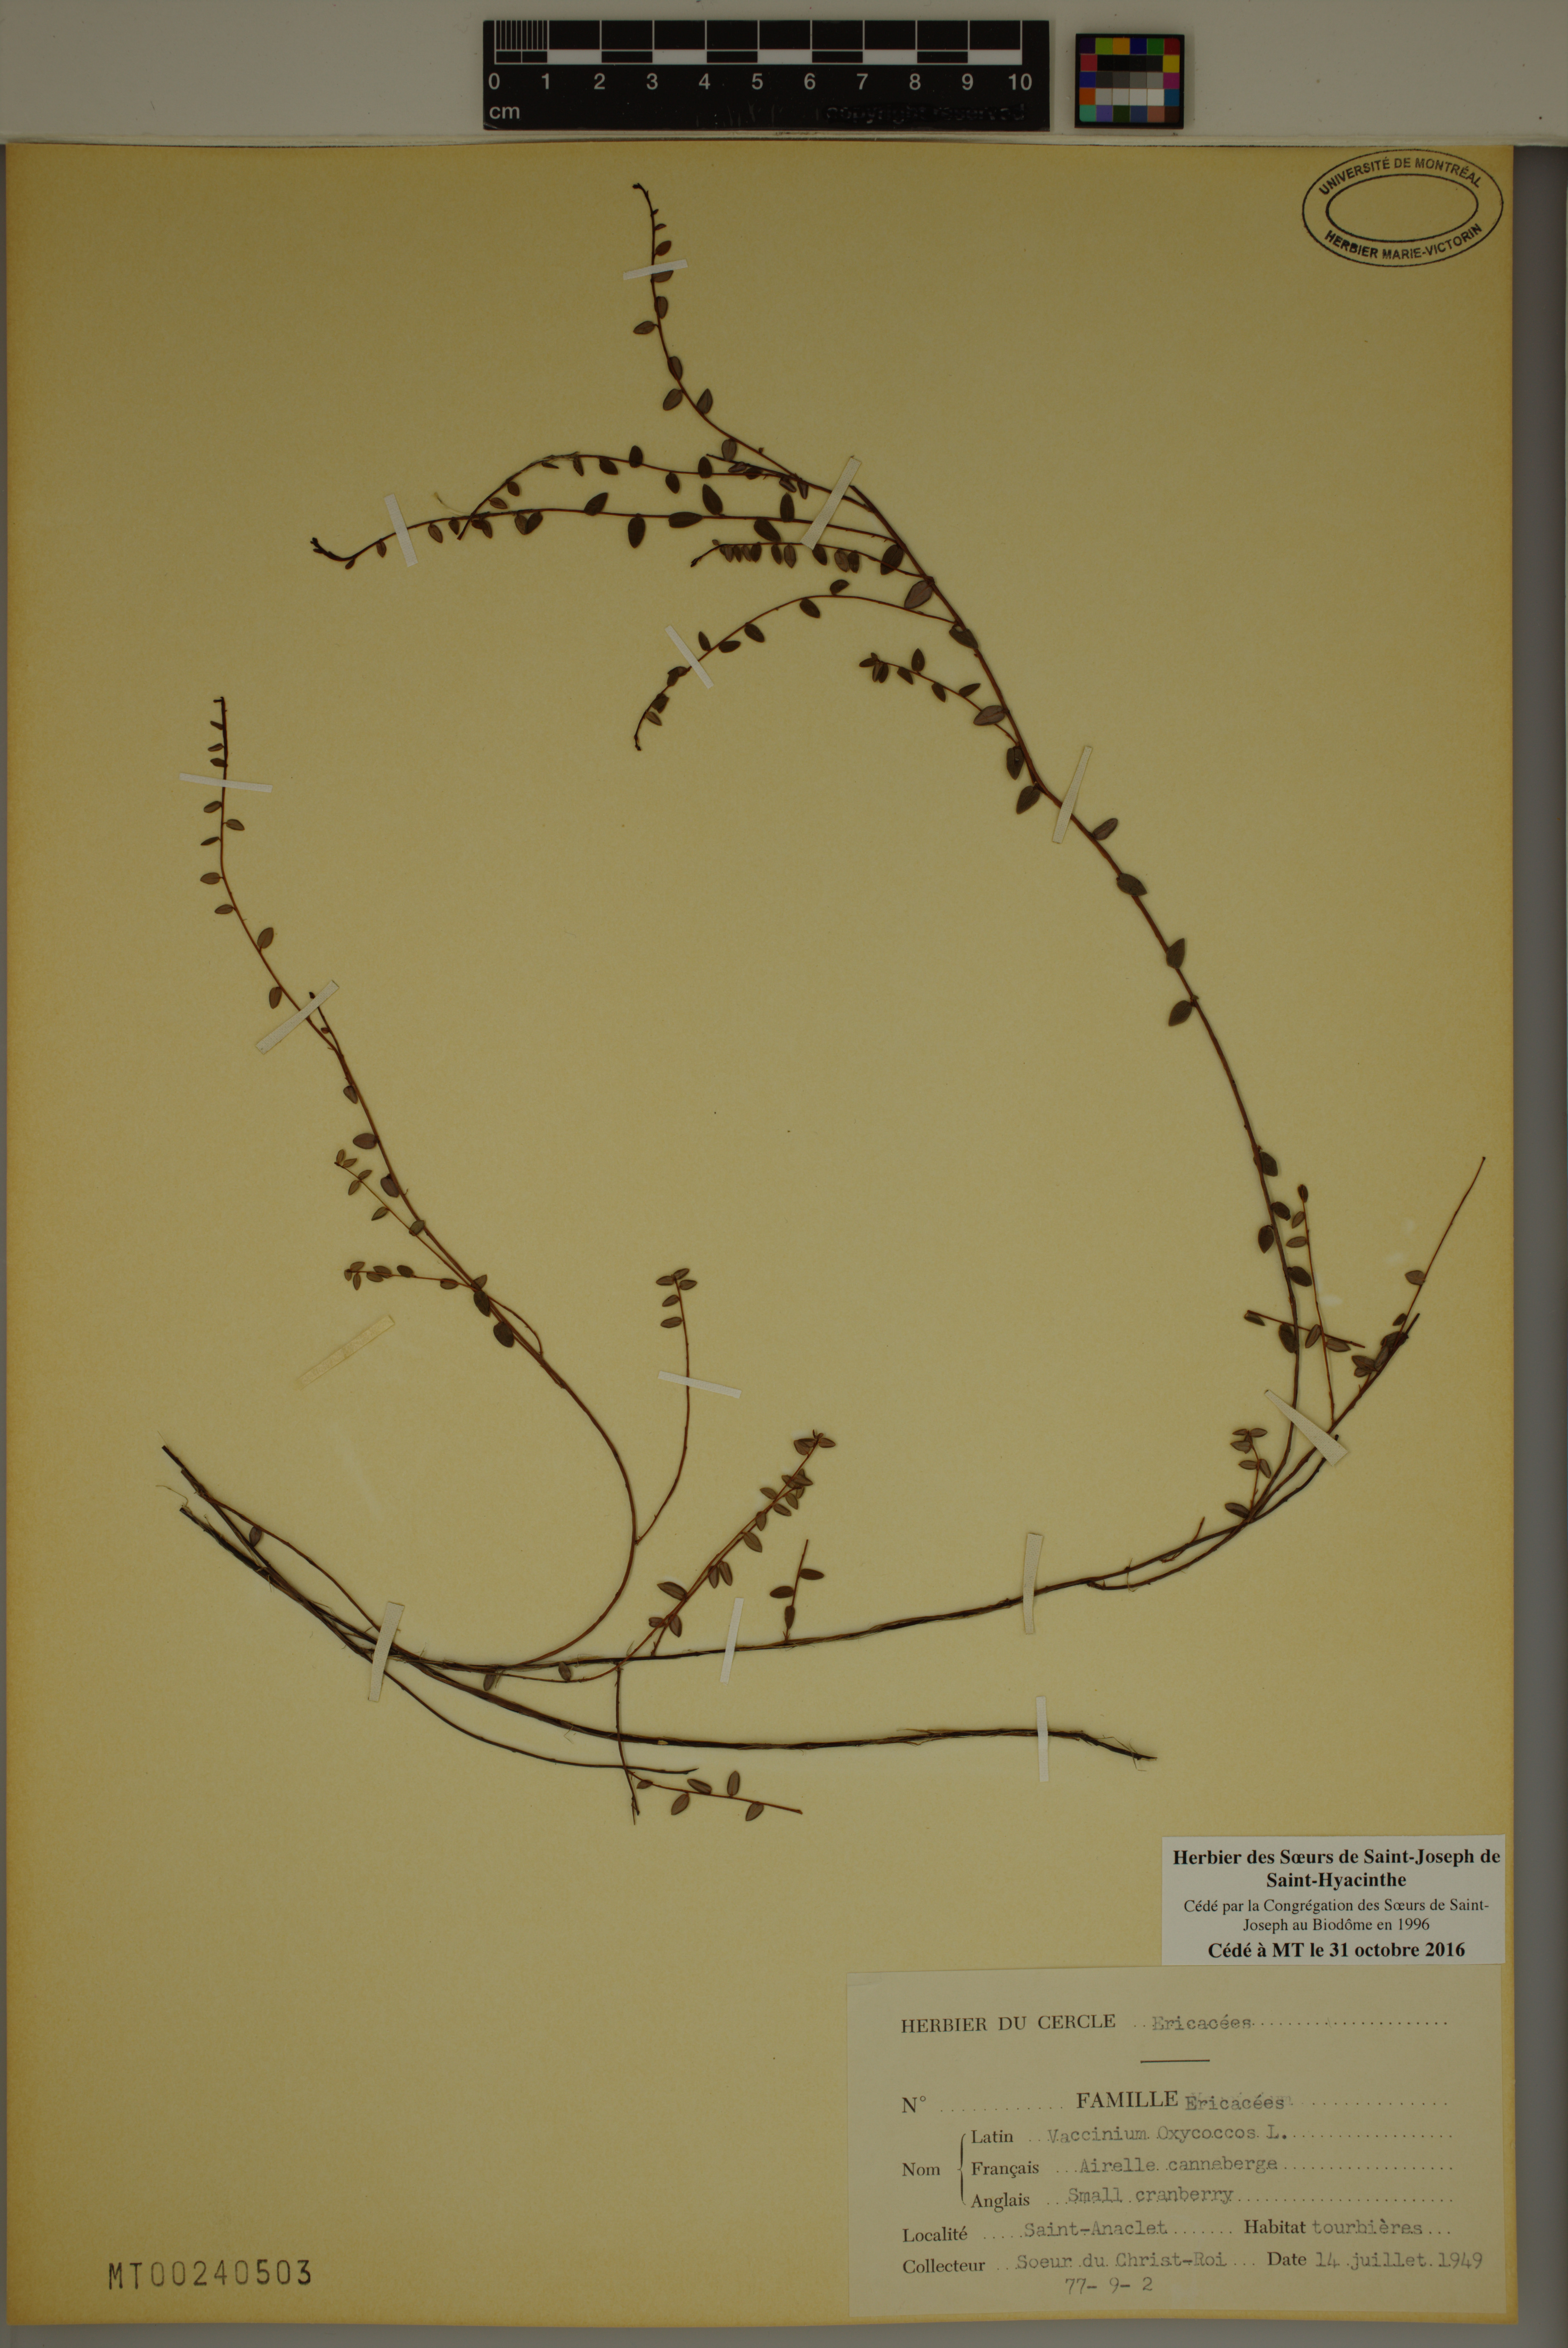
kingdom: Plantae
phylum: Tracheophyta
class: Magnoliopsida
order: Ericales
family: Ericaceae
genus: Vaccinium
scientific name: Vaccinium oxycoccos
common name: Cranberry
